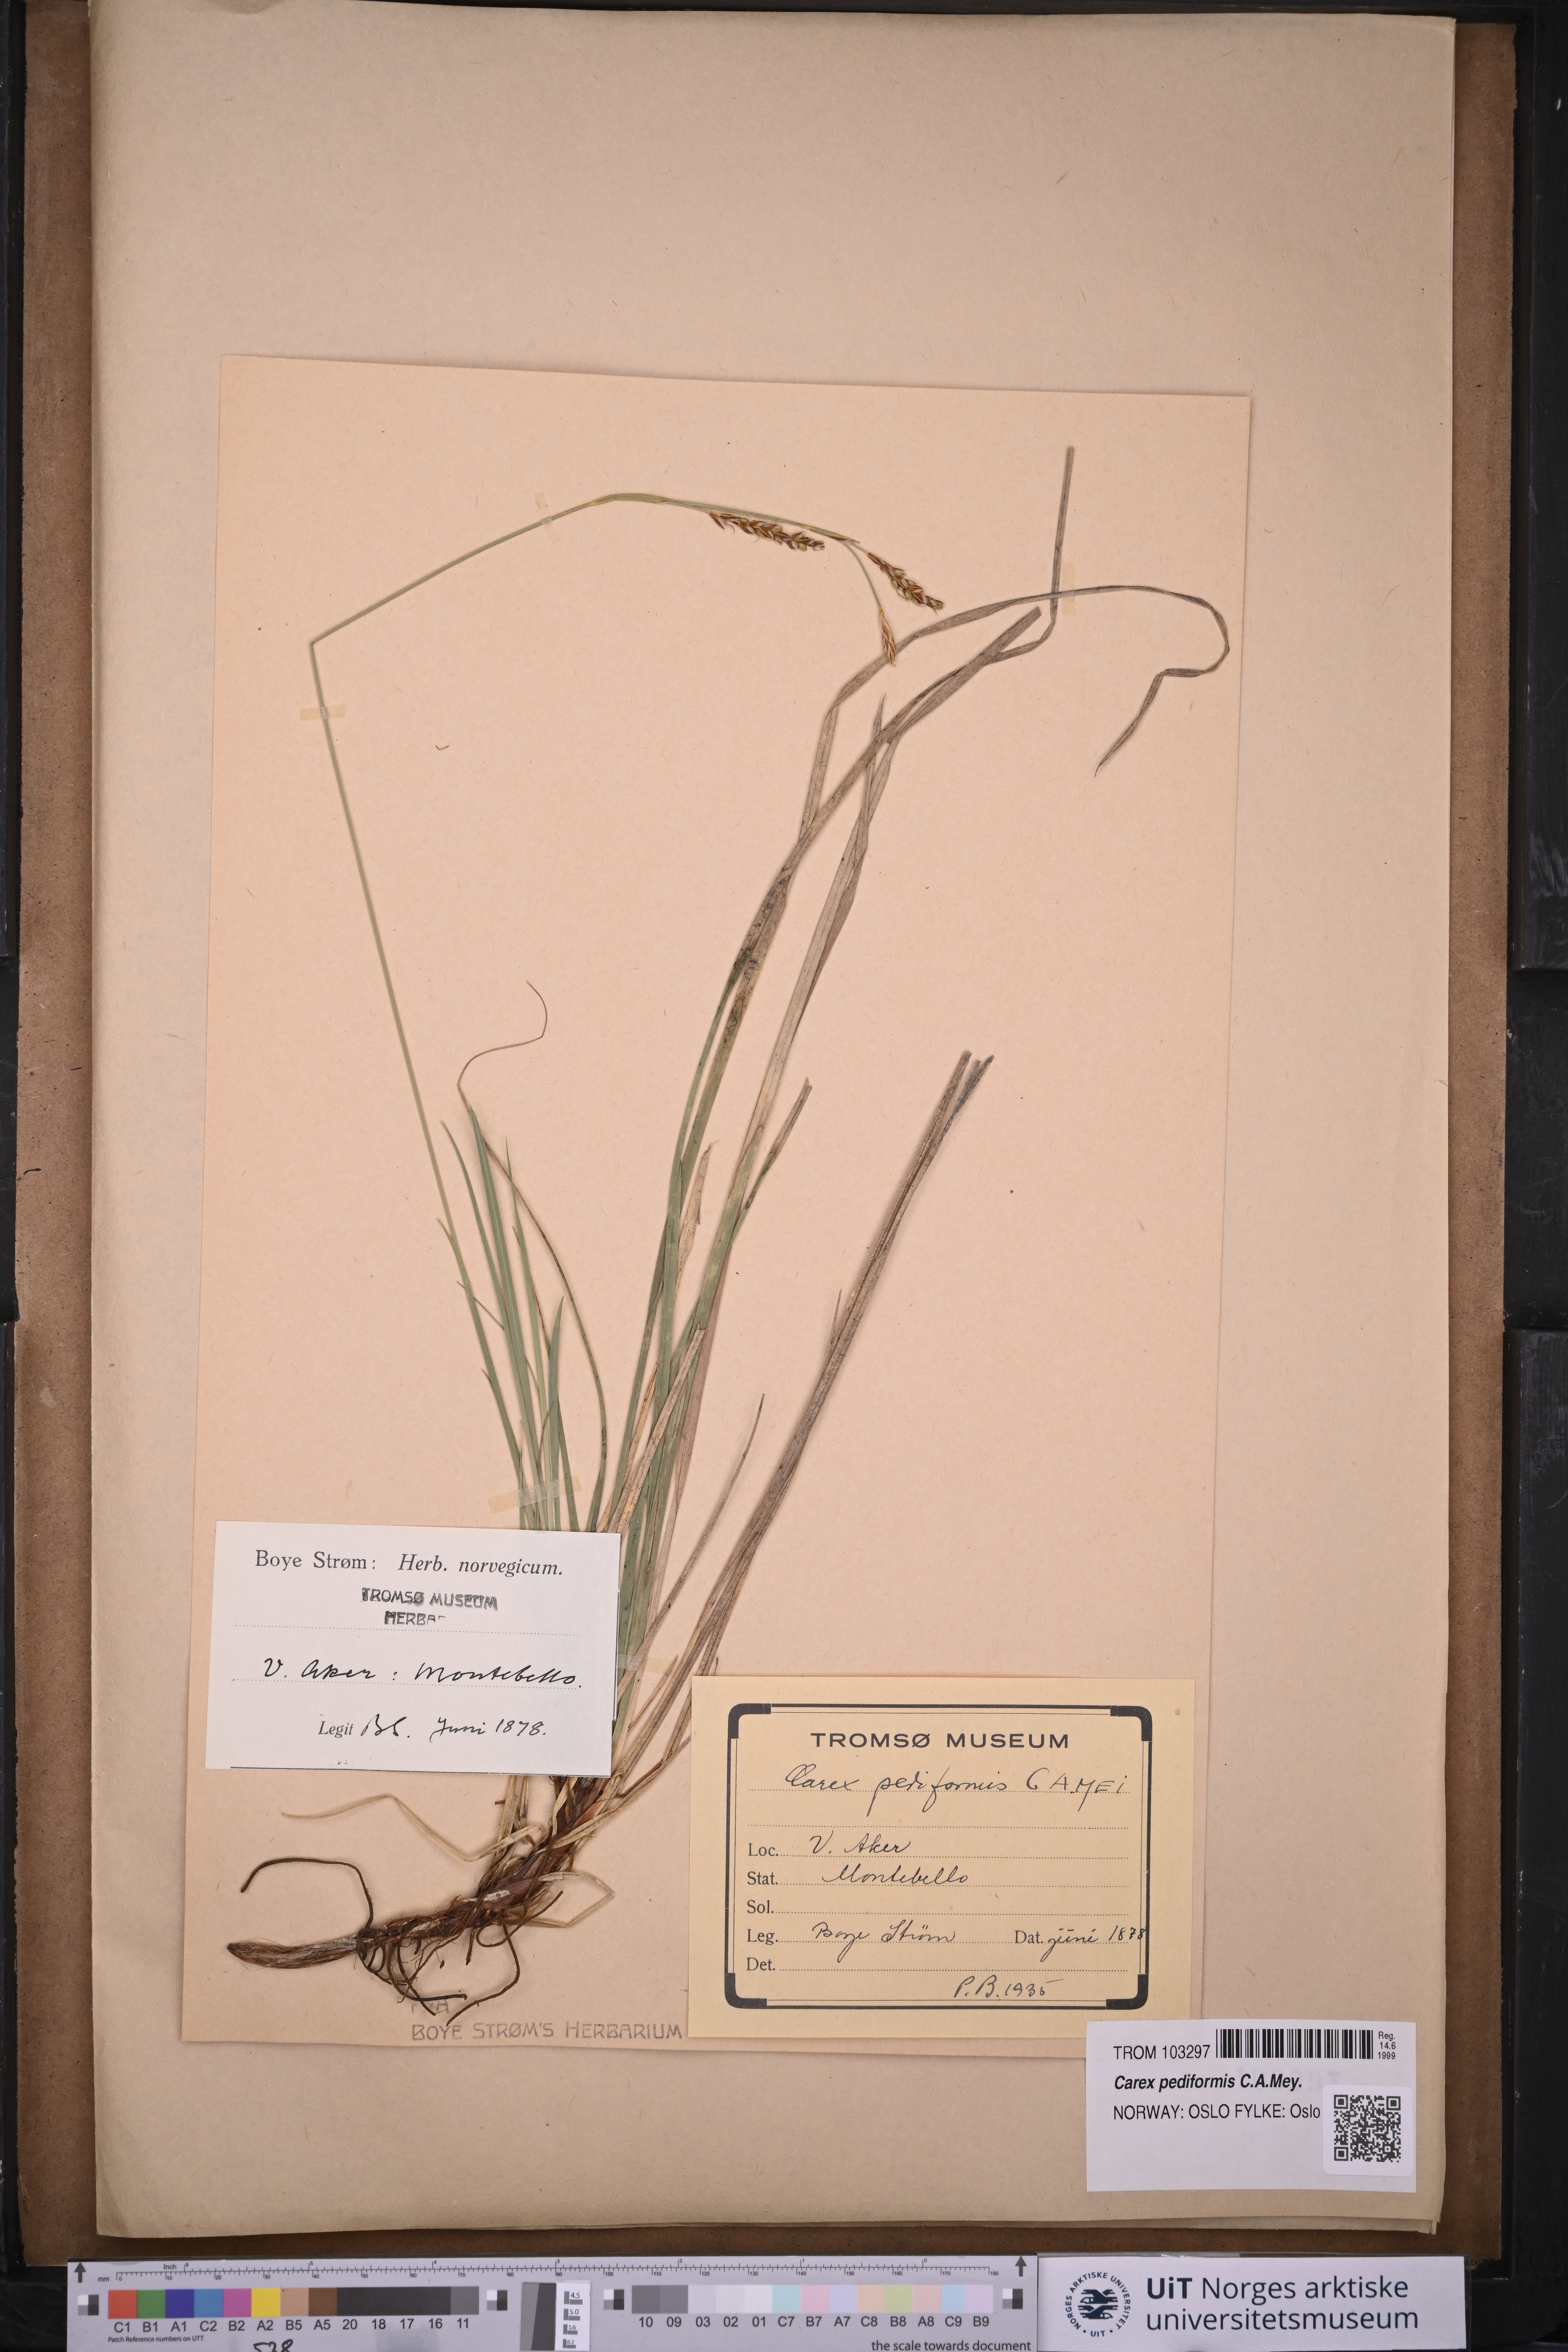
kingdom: Plantae
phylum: Tracheophyta
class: Liliopsida
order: Poales
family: Cyperaceae
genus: Carex
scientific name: Carex rhizina
